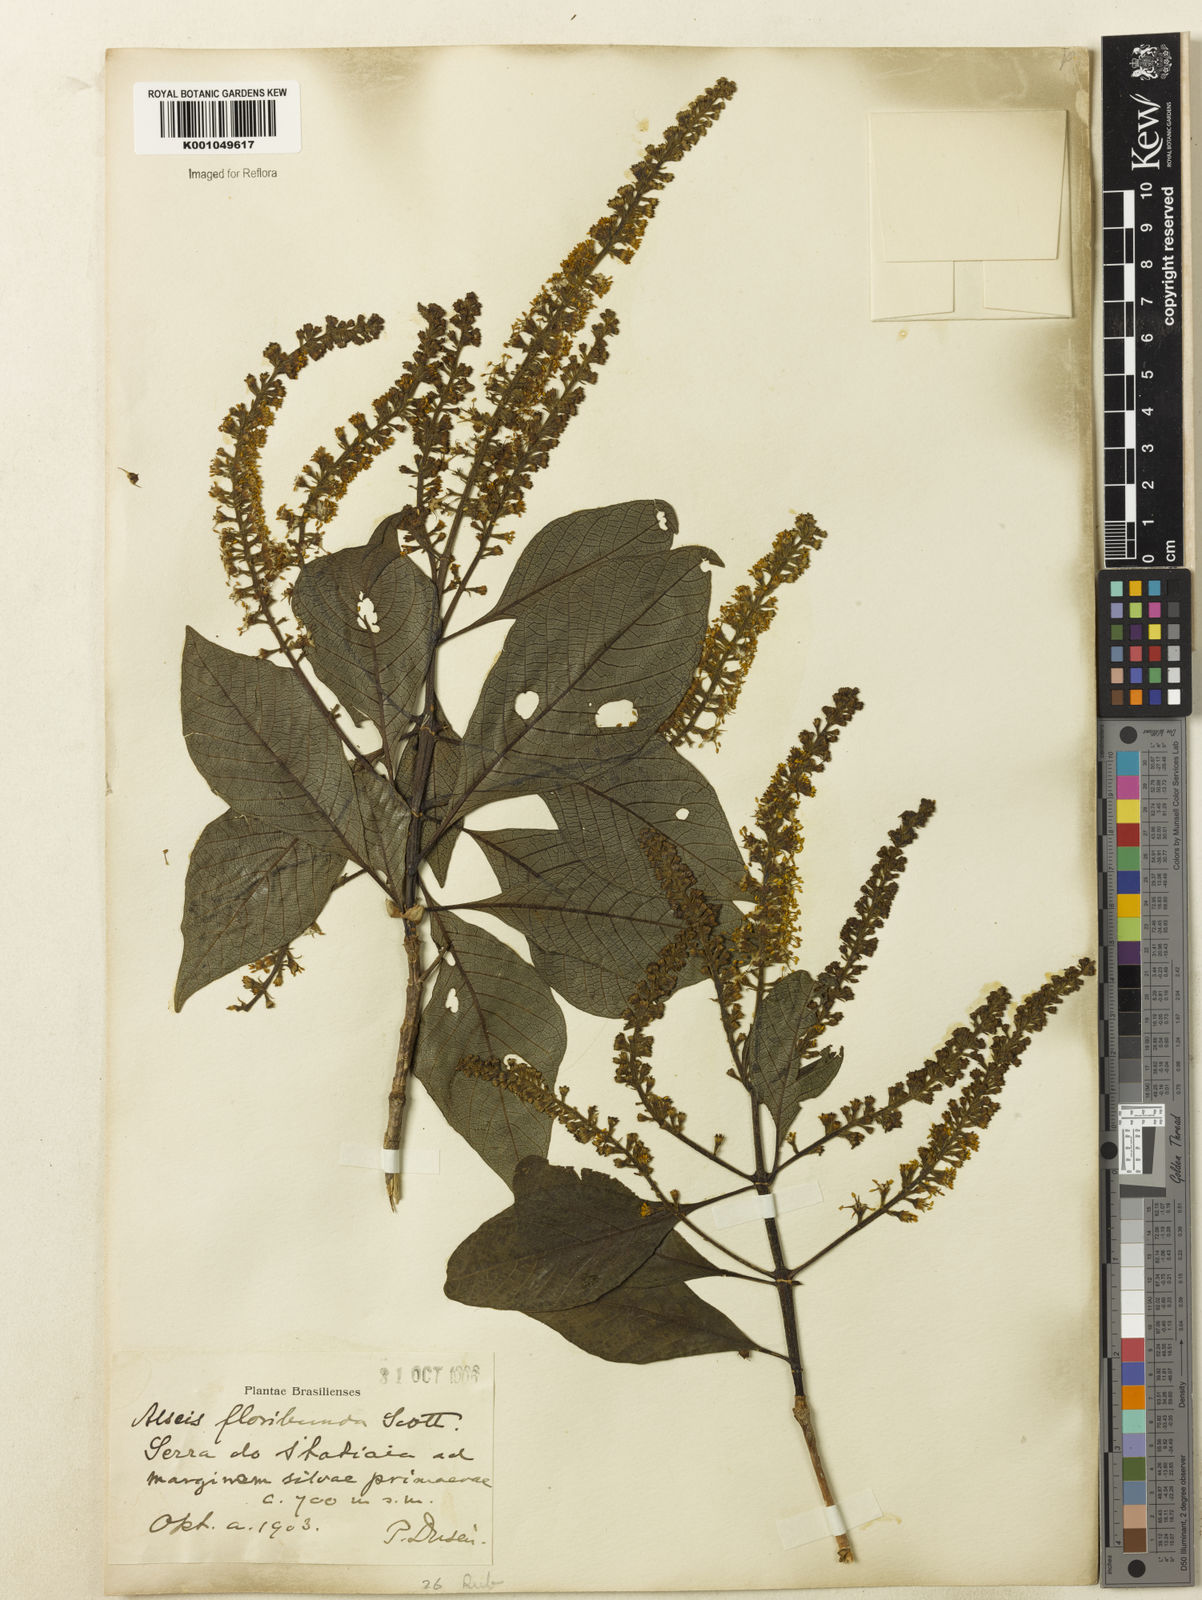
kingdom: Plantae
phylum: Tracheophyta
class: Magnoliopsida
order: Gentianales
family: Rubiaceae
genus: Alseis
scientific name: Alseis floribunda
